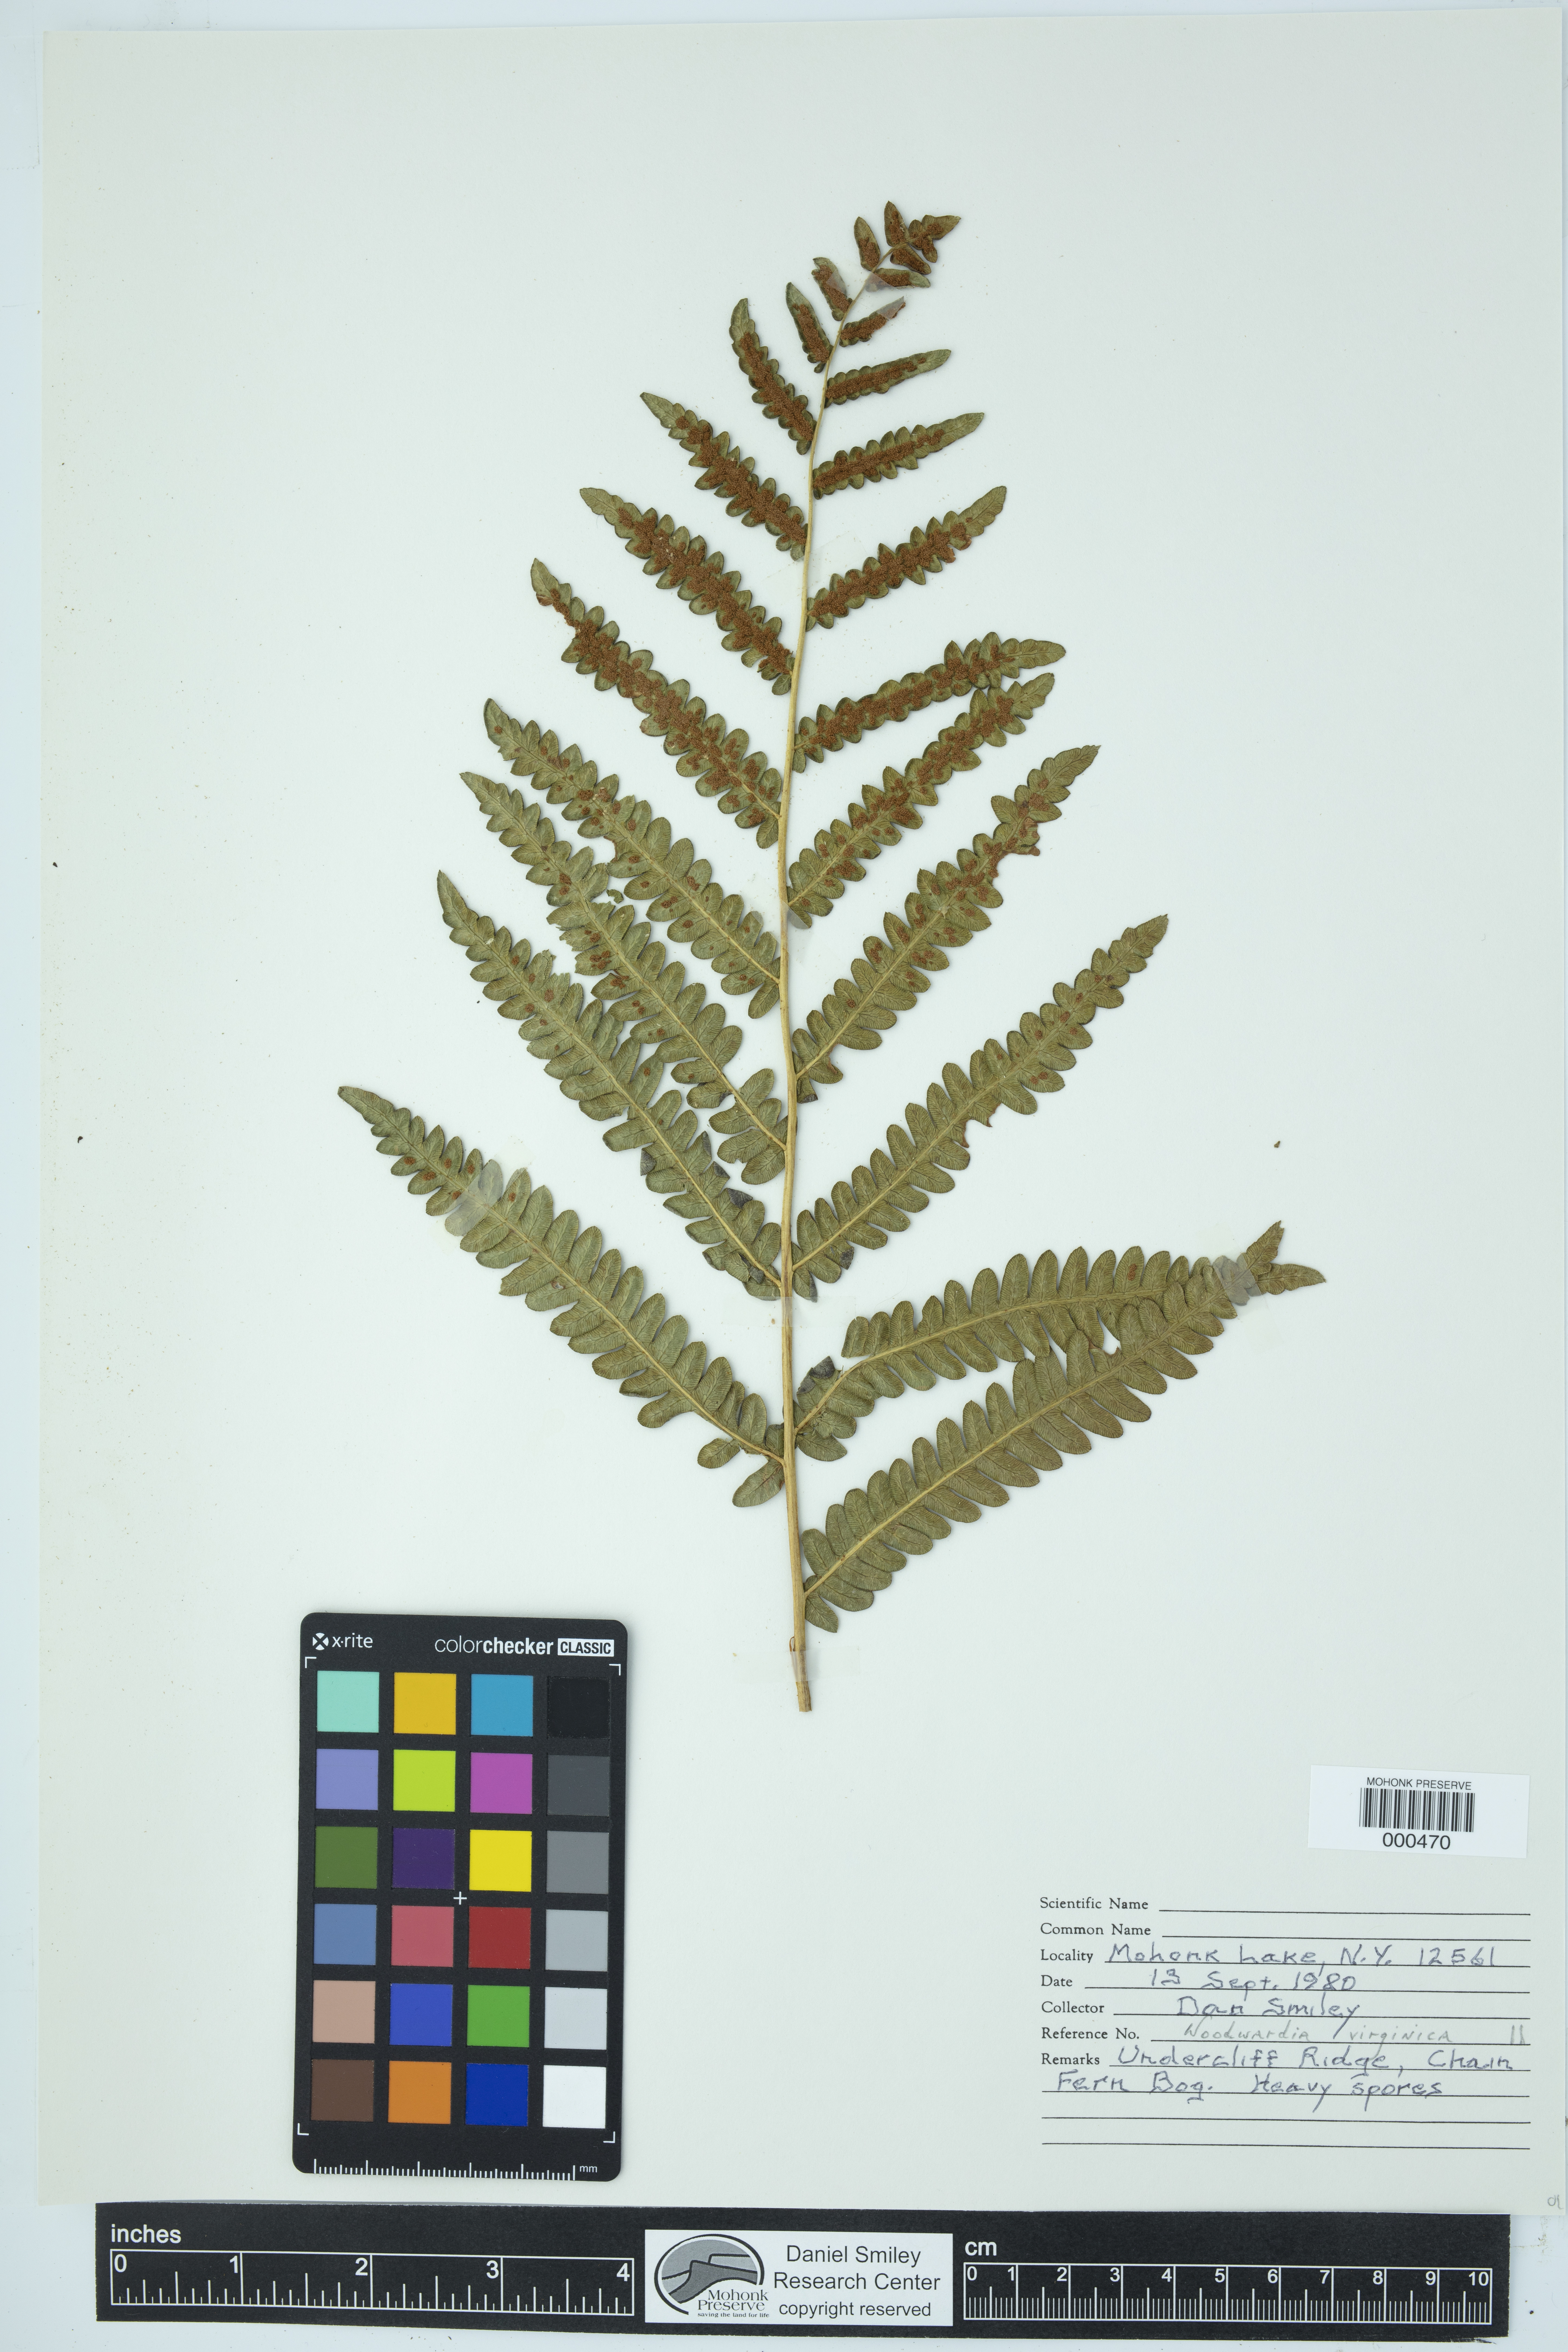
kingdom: Plantae
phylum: Tracheophyta
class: Polypodiopsida
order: Polypodiales
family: Blechnaceae
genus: Anchistea
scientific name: Anchistea virginica
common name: Virginia chain fern
